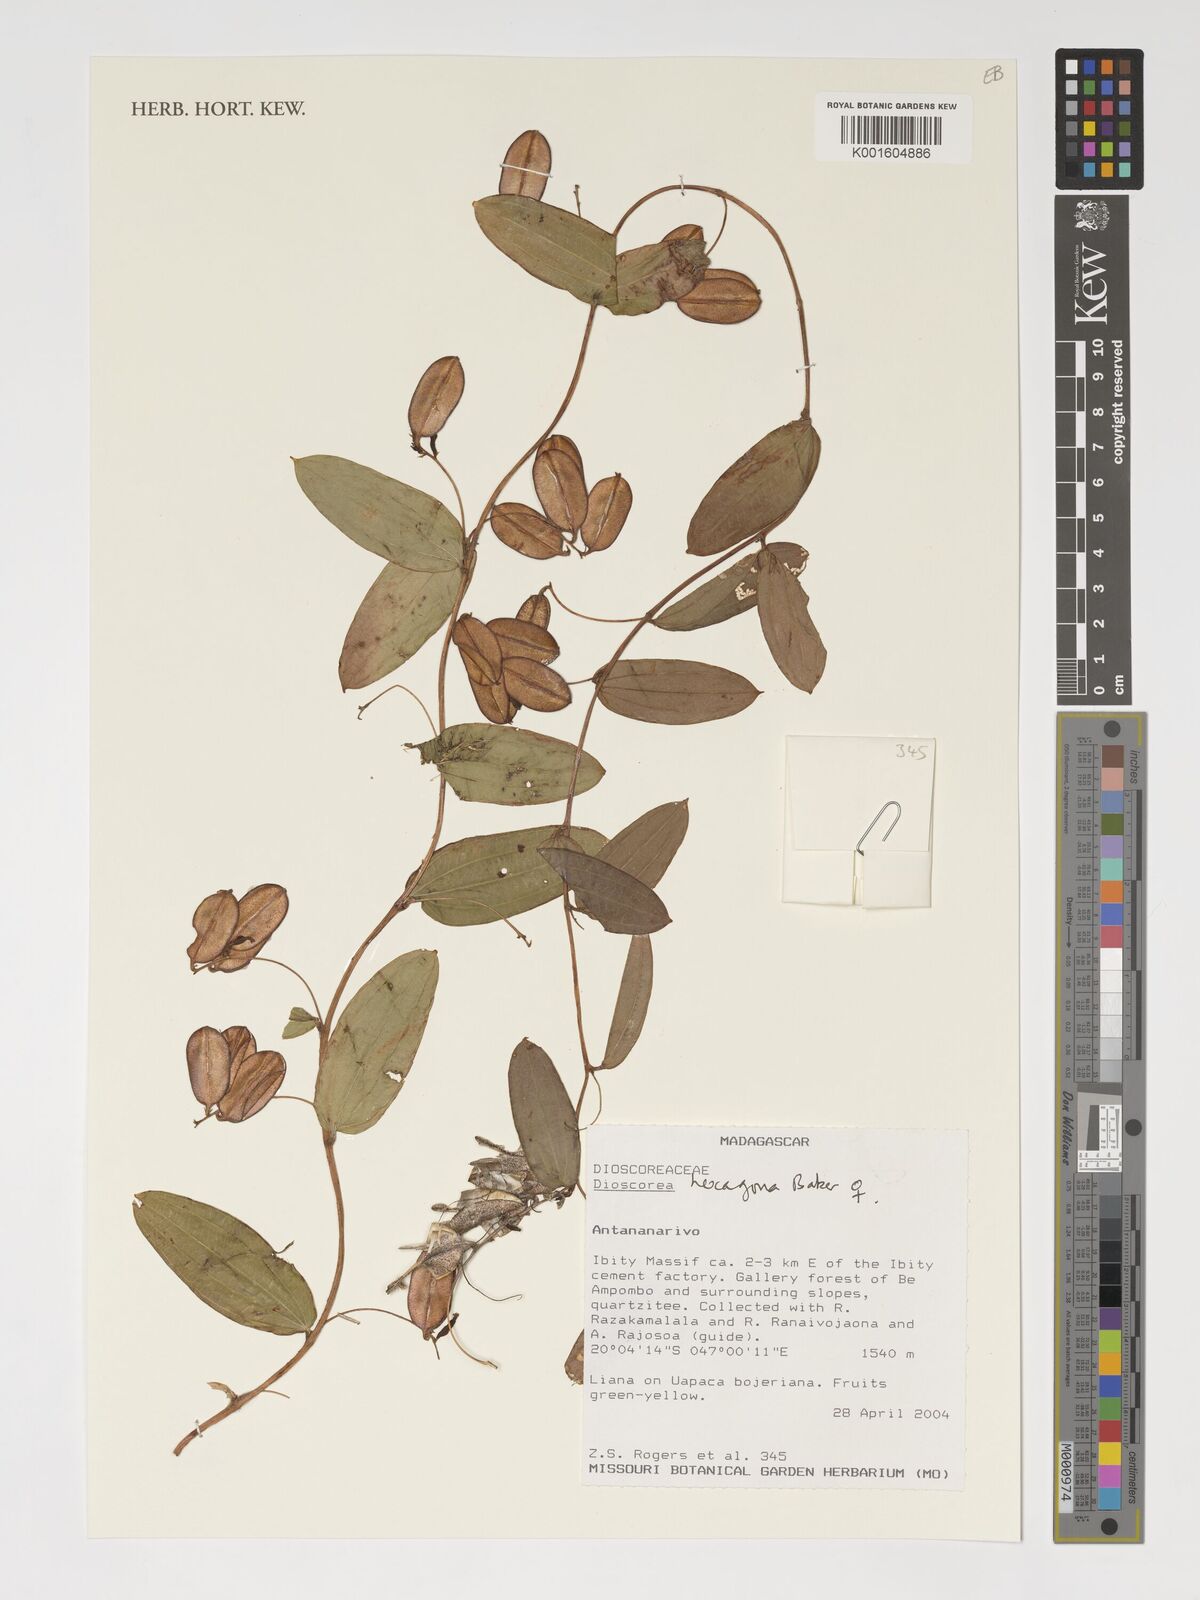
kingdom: Plantae
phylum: Tracheophyta
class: Liliopsida
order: Dioscoreales
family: Dioscoreaceae
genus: Dioscorea
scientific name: Dioscorea hexagona
